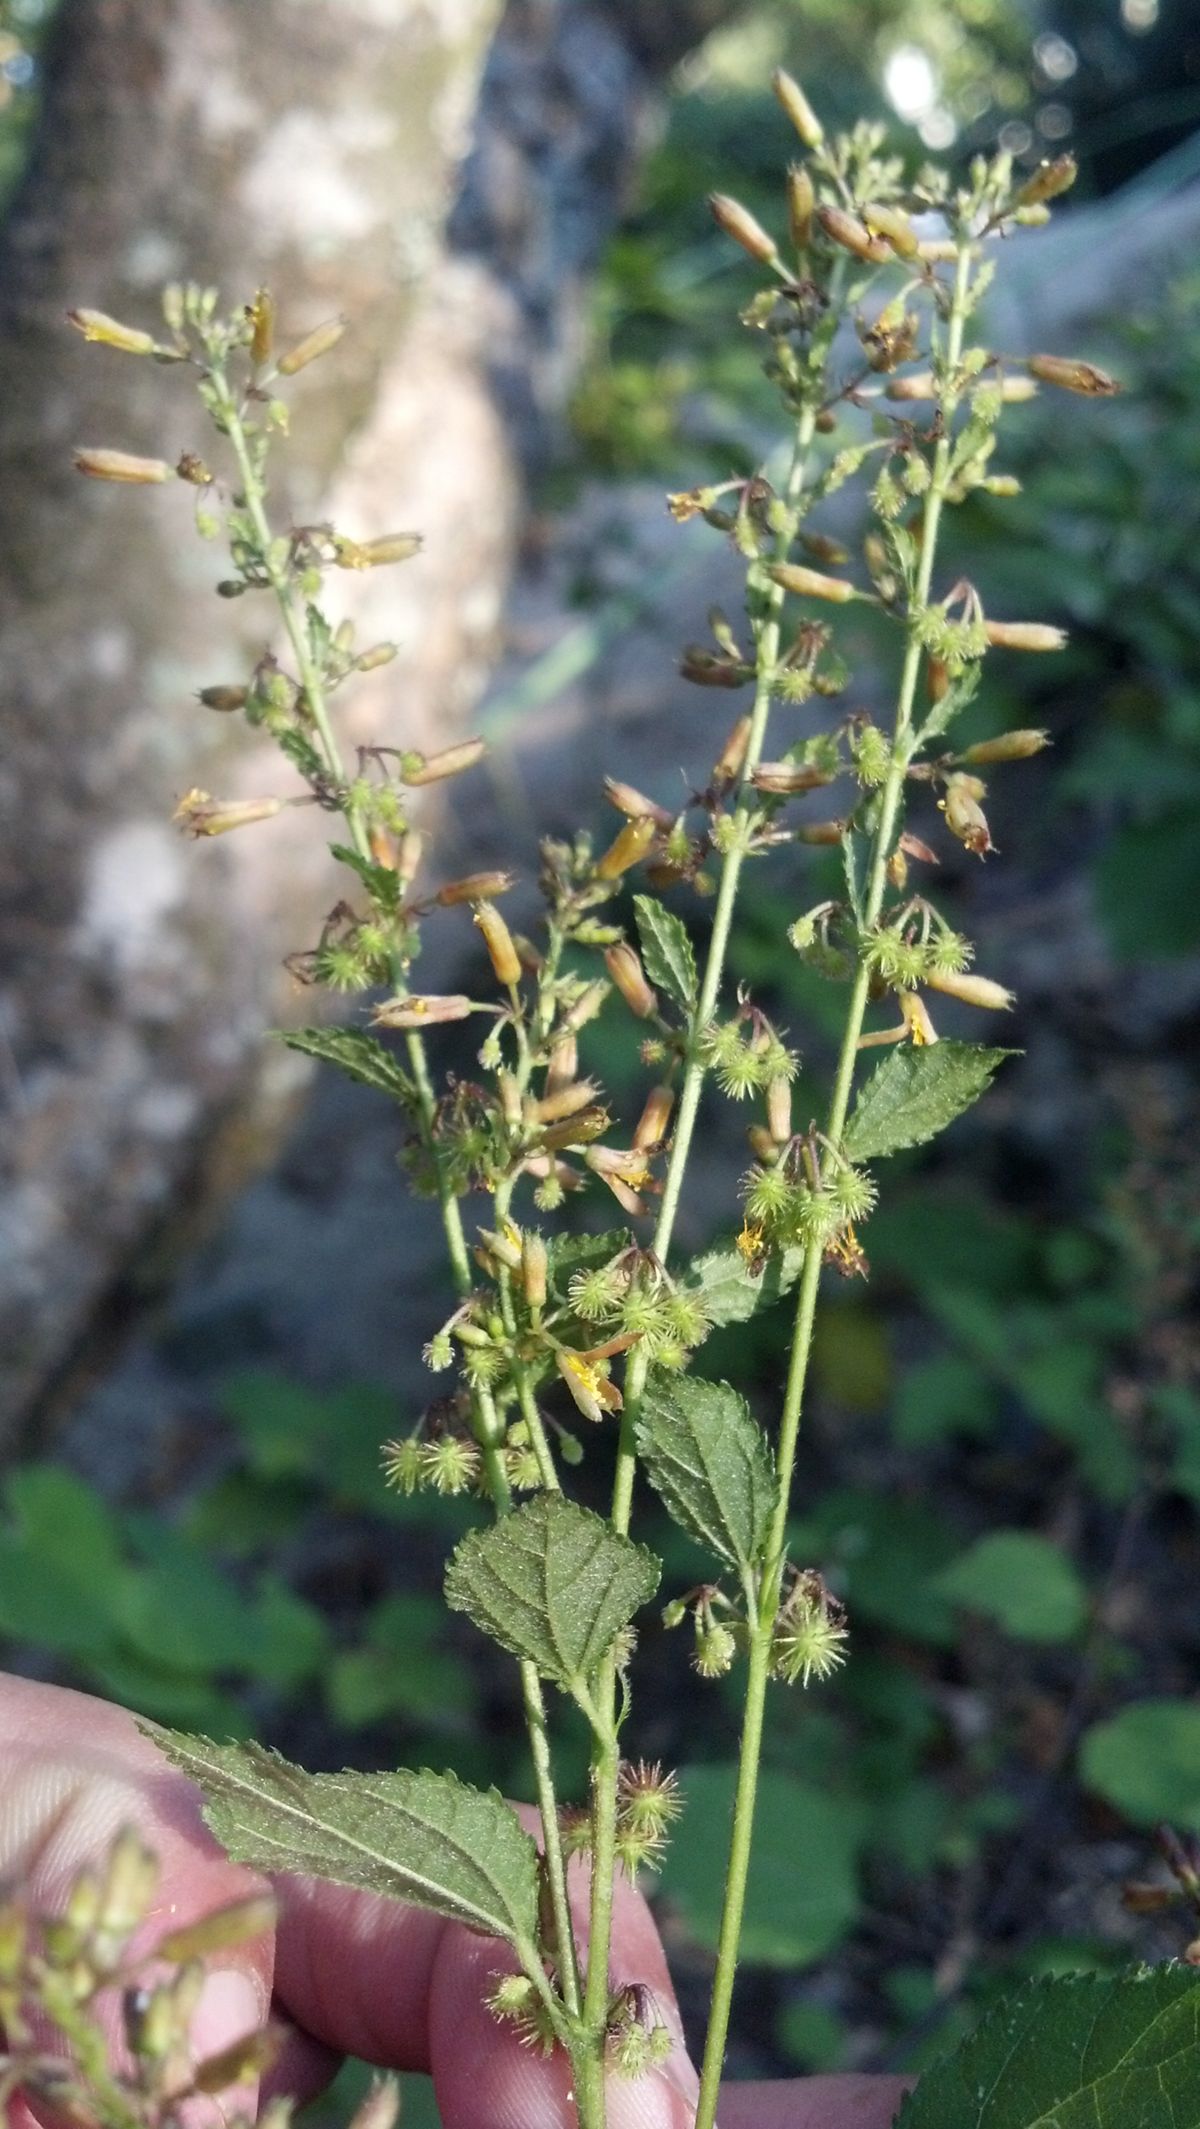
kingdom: Plantae
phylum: Tracheophyta
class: Magnoliopsida
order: Malvales
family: Malvaceae
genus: Triumfetta
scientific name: Triumfetta lappula
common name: Burbark
